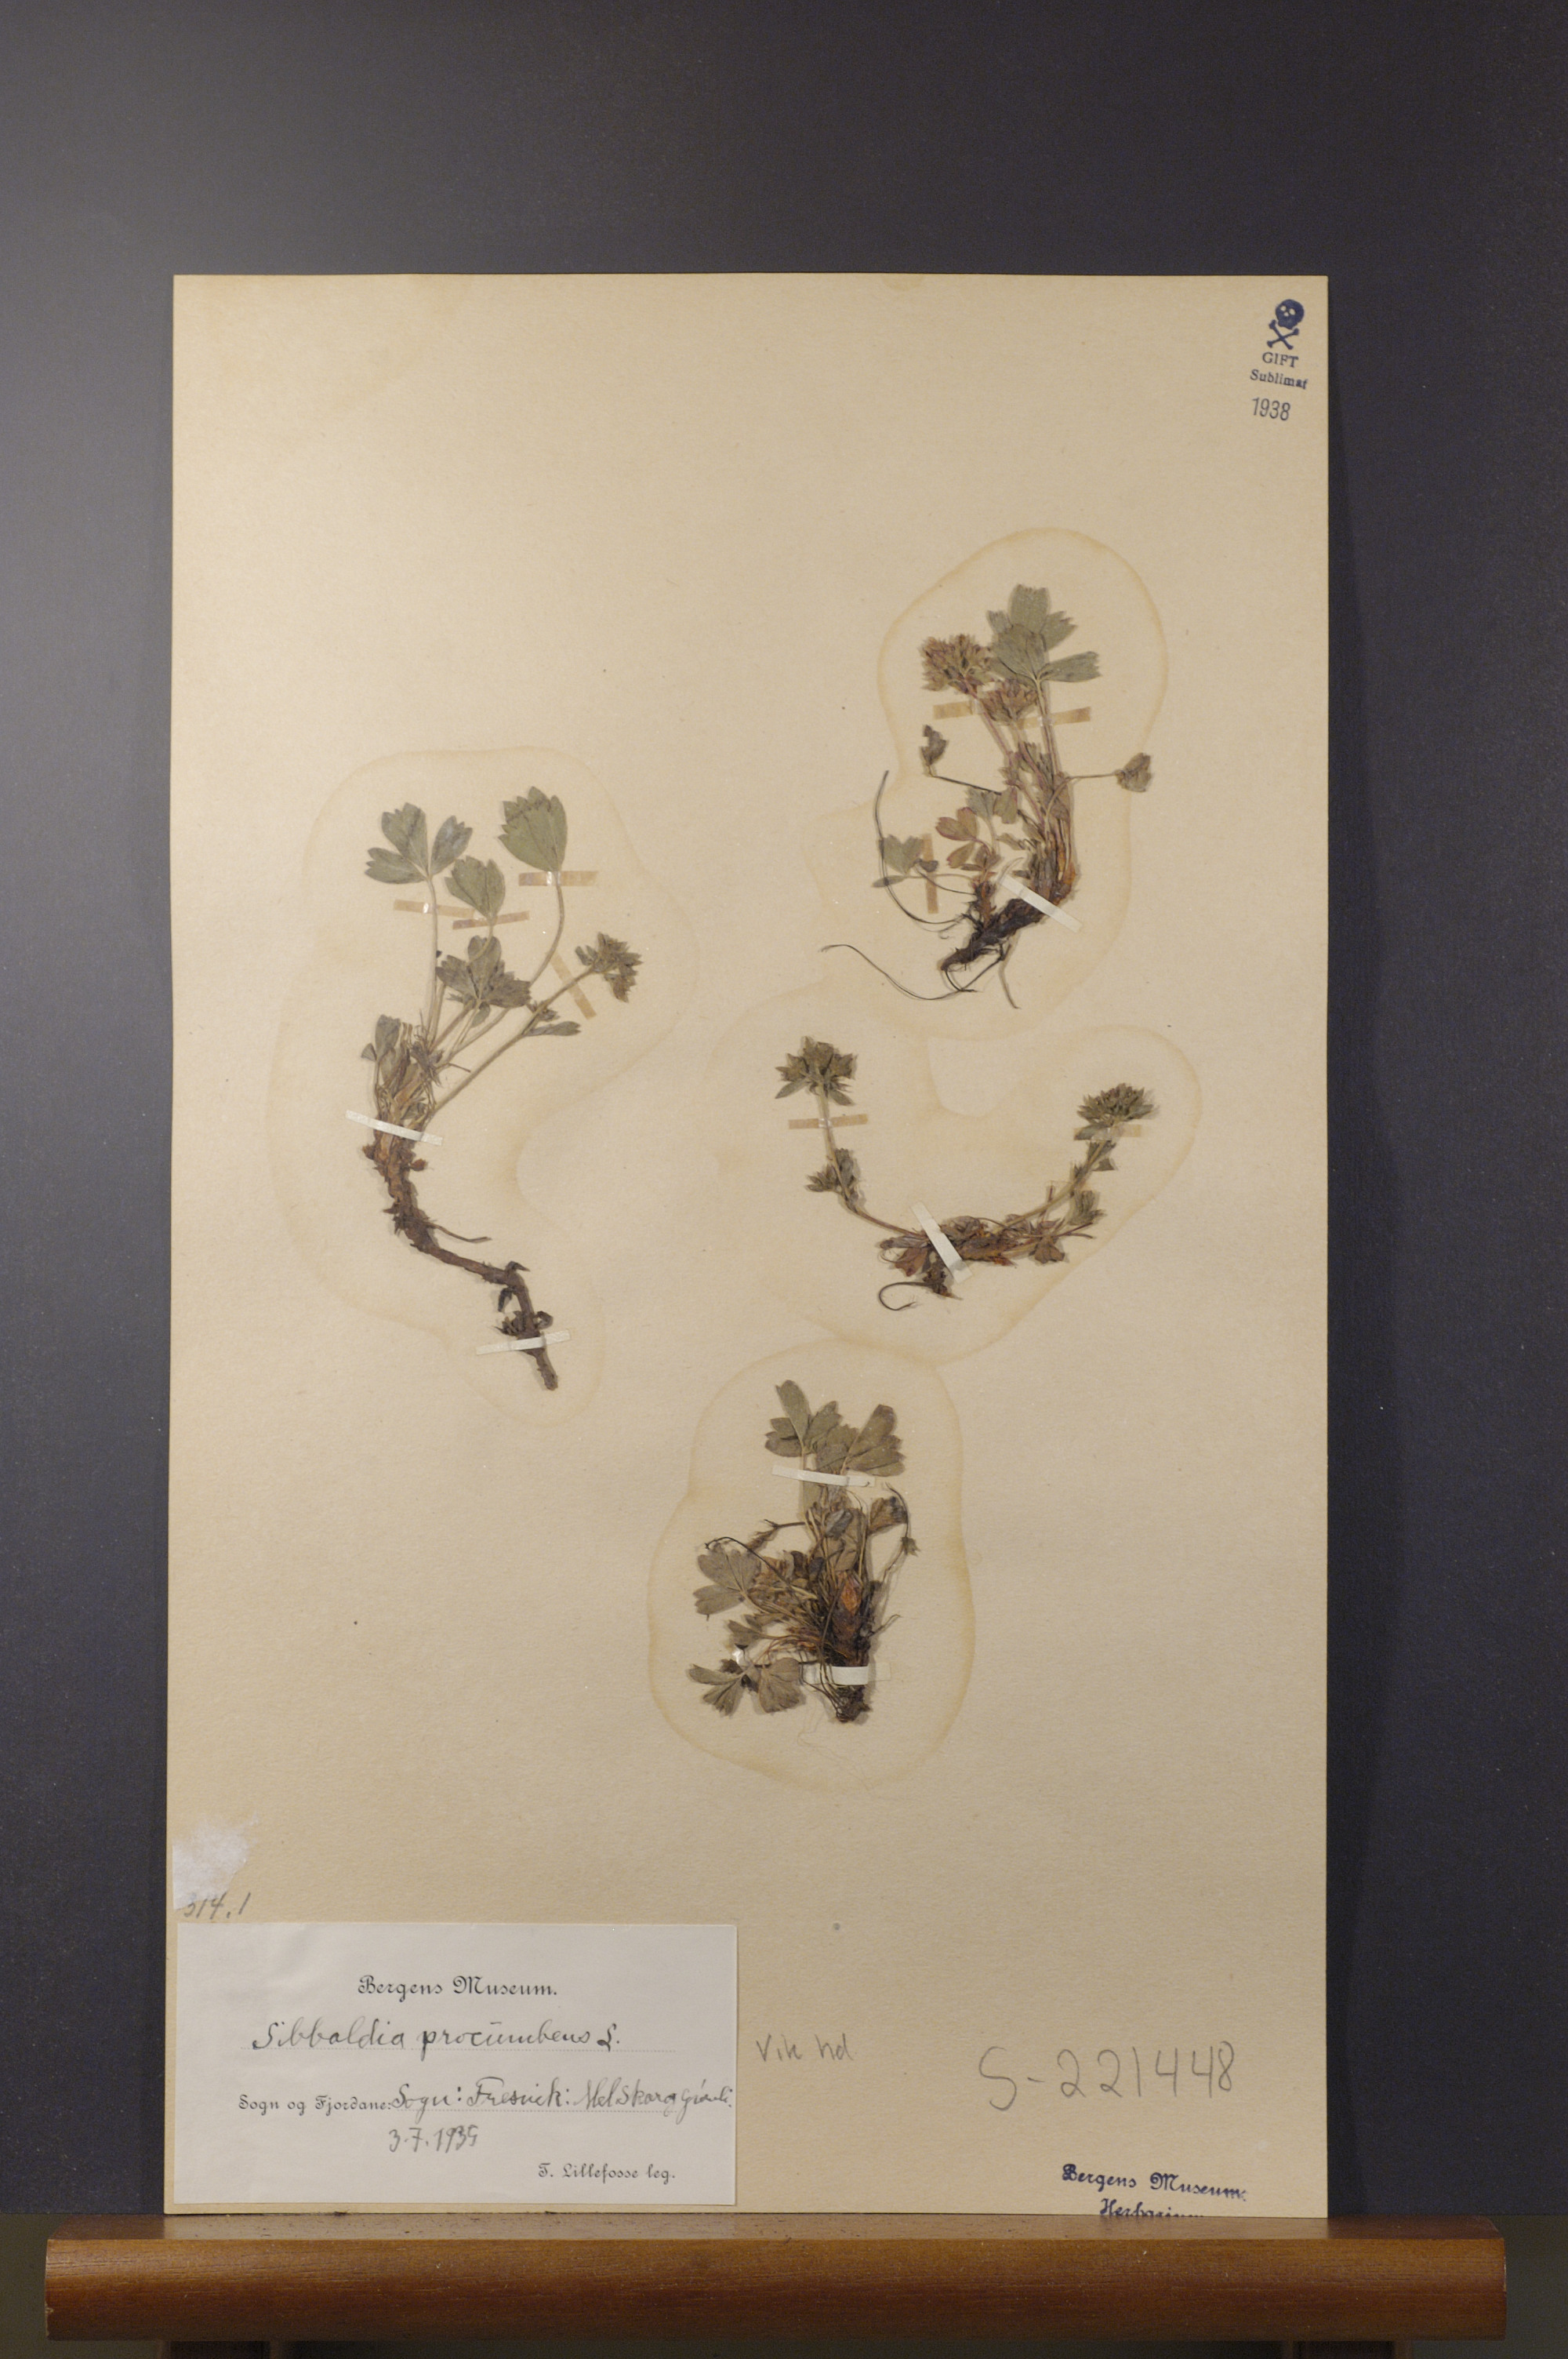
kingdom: Plantae
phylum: Tracheophyta
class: Magnoliopsida
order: Rosales
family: Rosaceae
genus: Sibbaldia
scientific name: Sibbaldia procumbens
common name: Creeping sibbaldia
